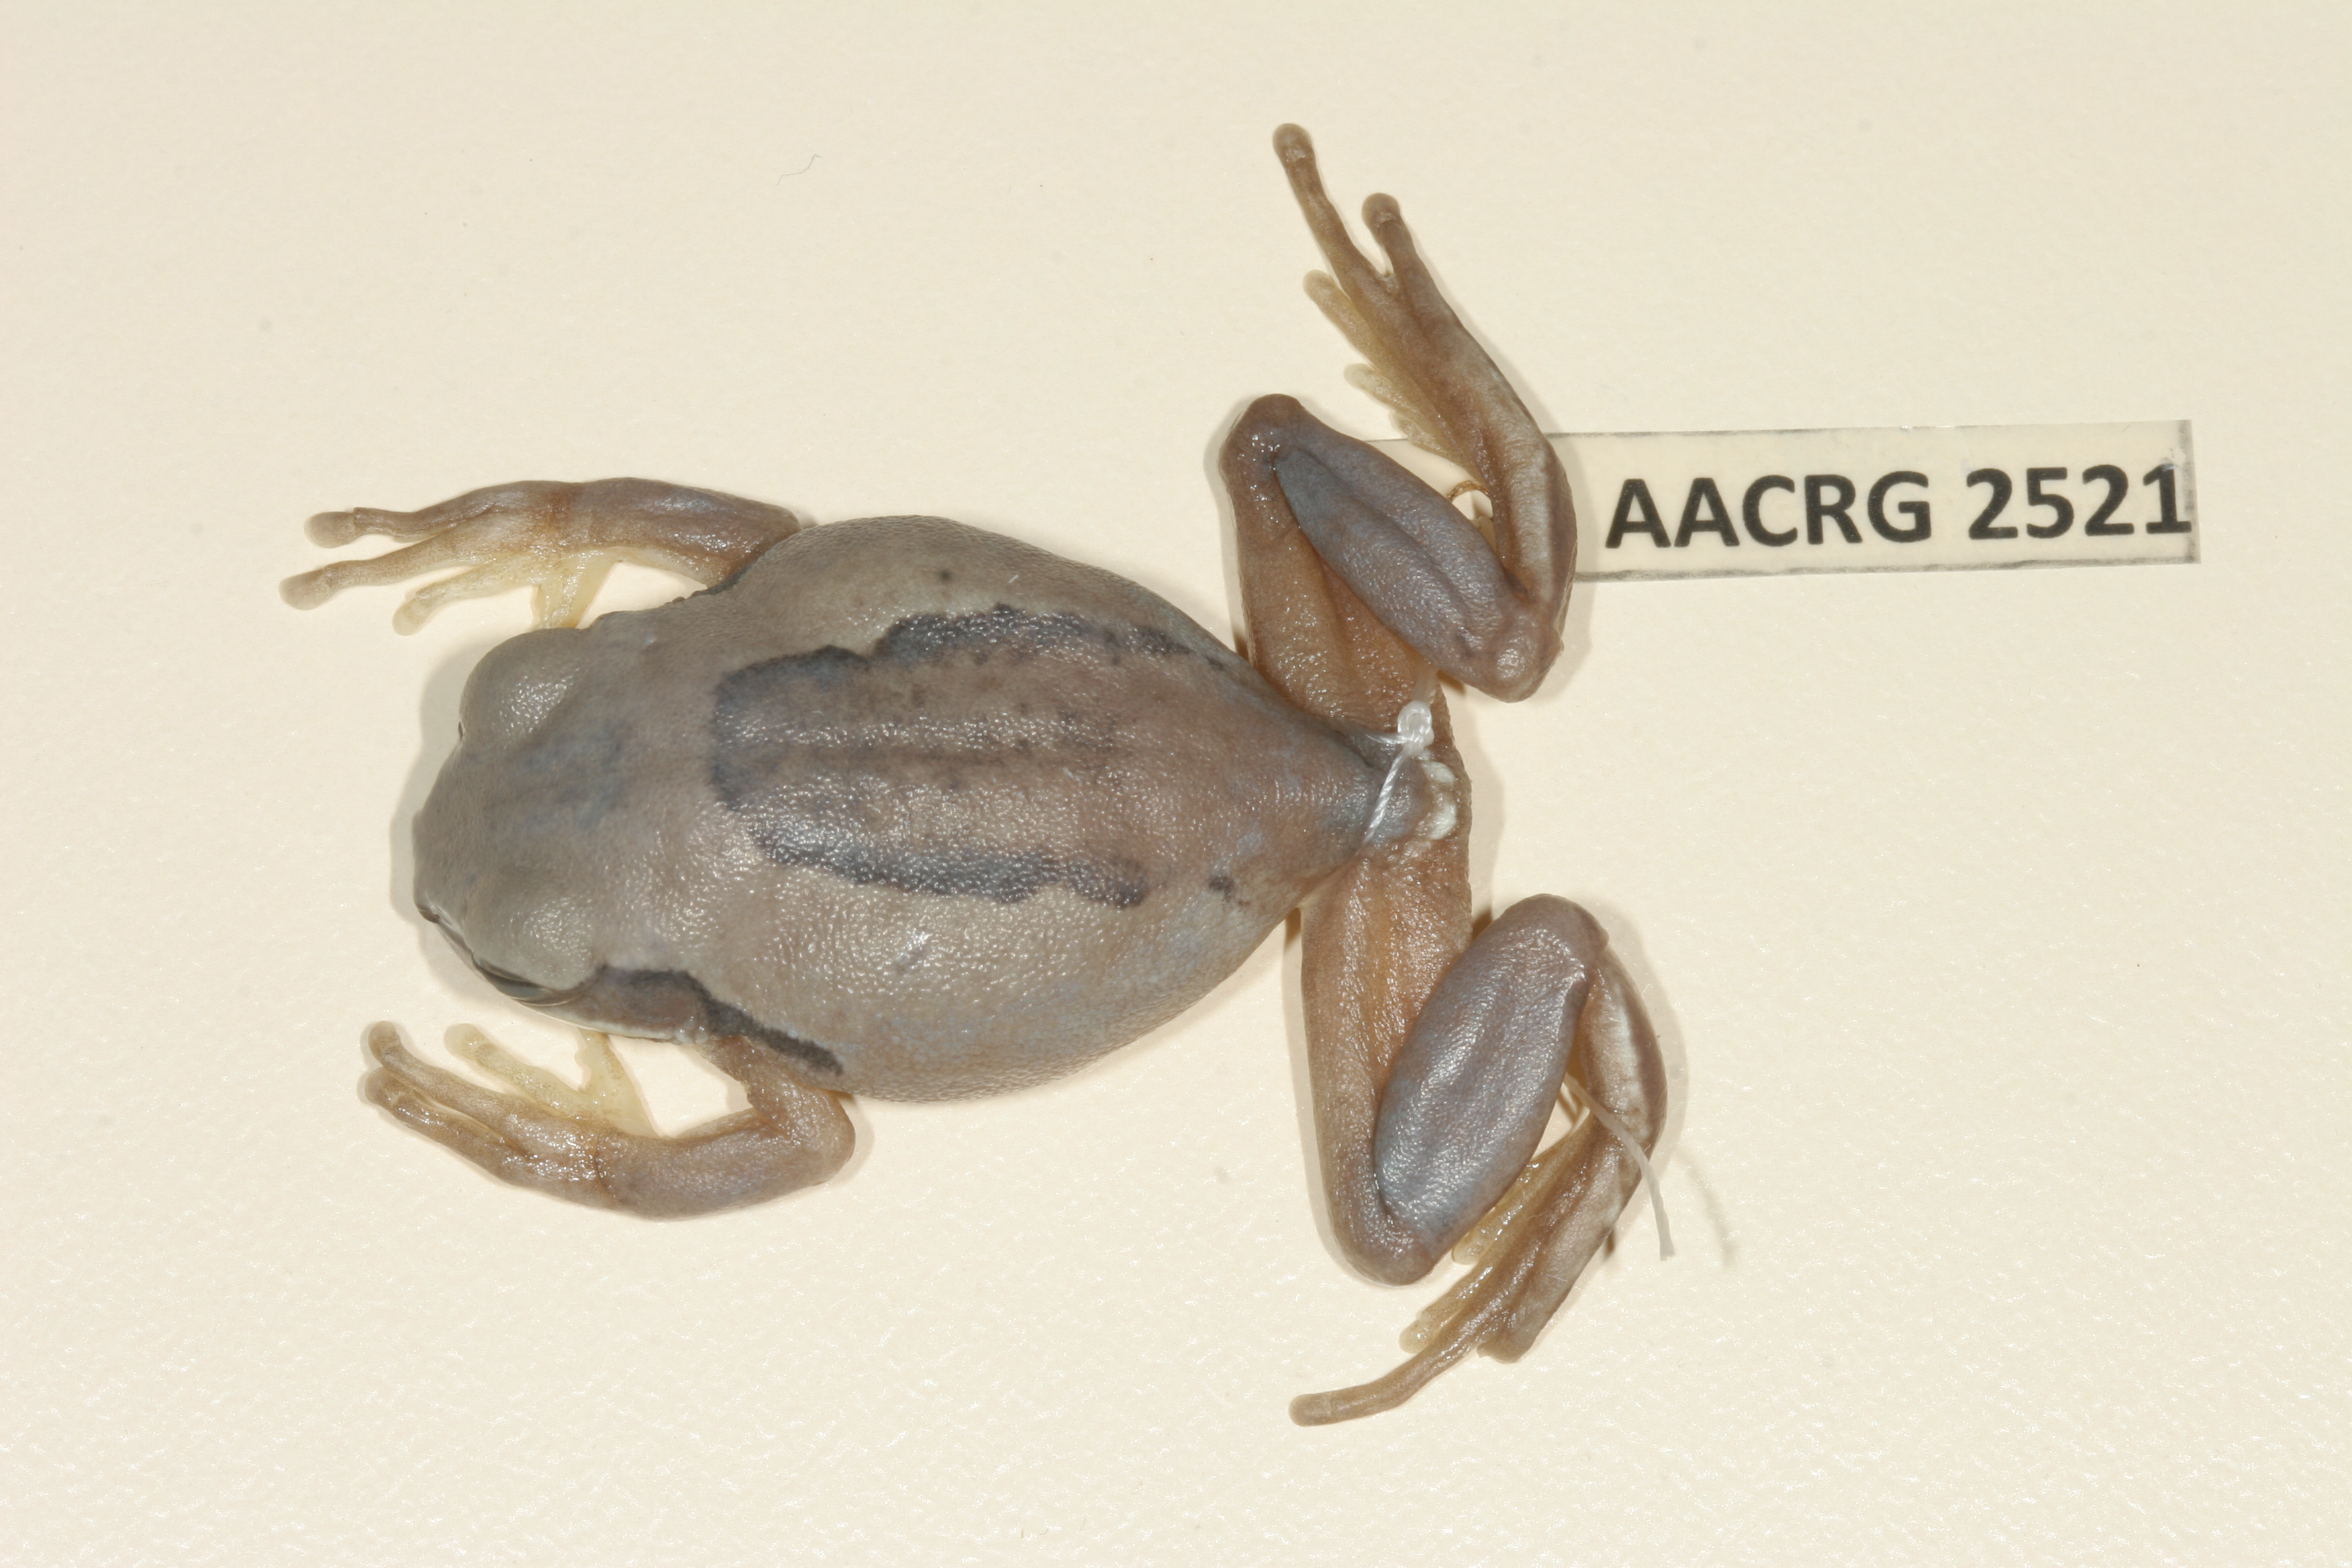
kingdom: Animalia
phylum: Chordata
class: Amphibia
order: Anura
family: Arthroleptidae
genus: Leptopelis
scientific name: Leptopelis mossambicus
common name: Mozambique tree frog
